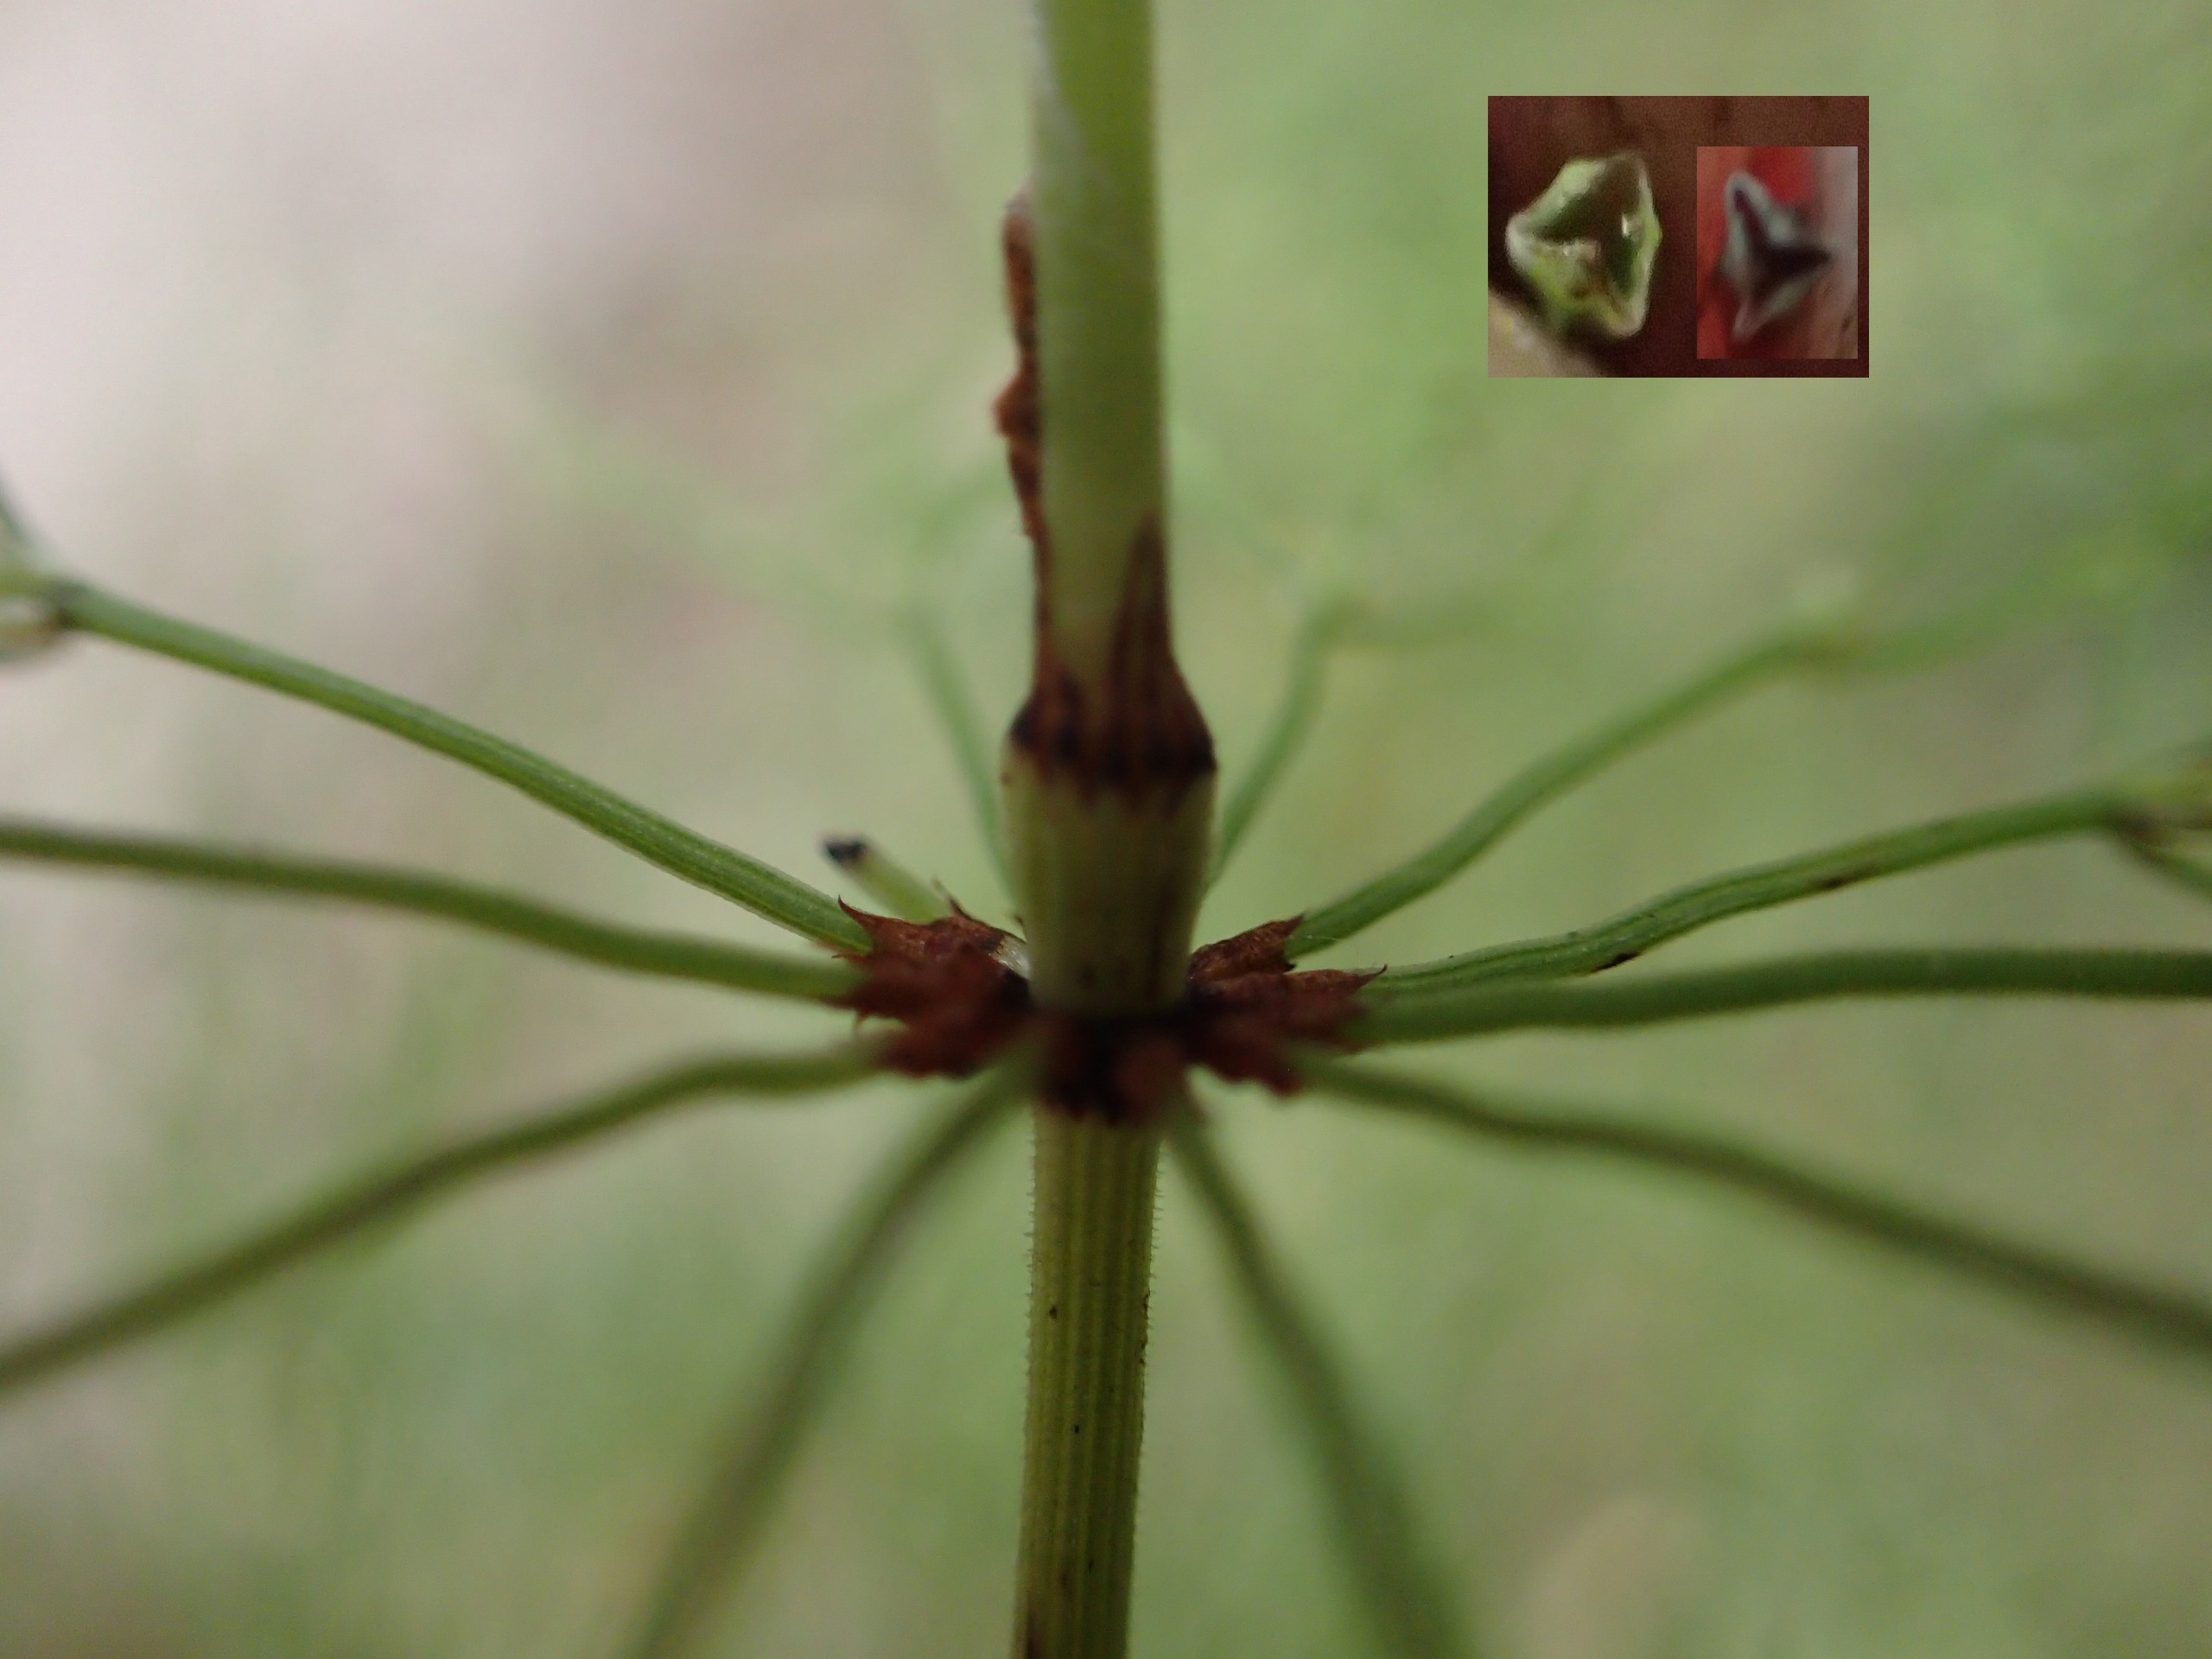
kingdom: Plantae
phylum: Tracheophyta
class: Polypodiopsida
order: Equisetales
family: Equisetaceae
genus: Equisetum
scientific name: Equisetum pratense
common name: Lund-padderok
